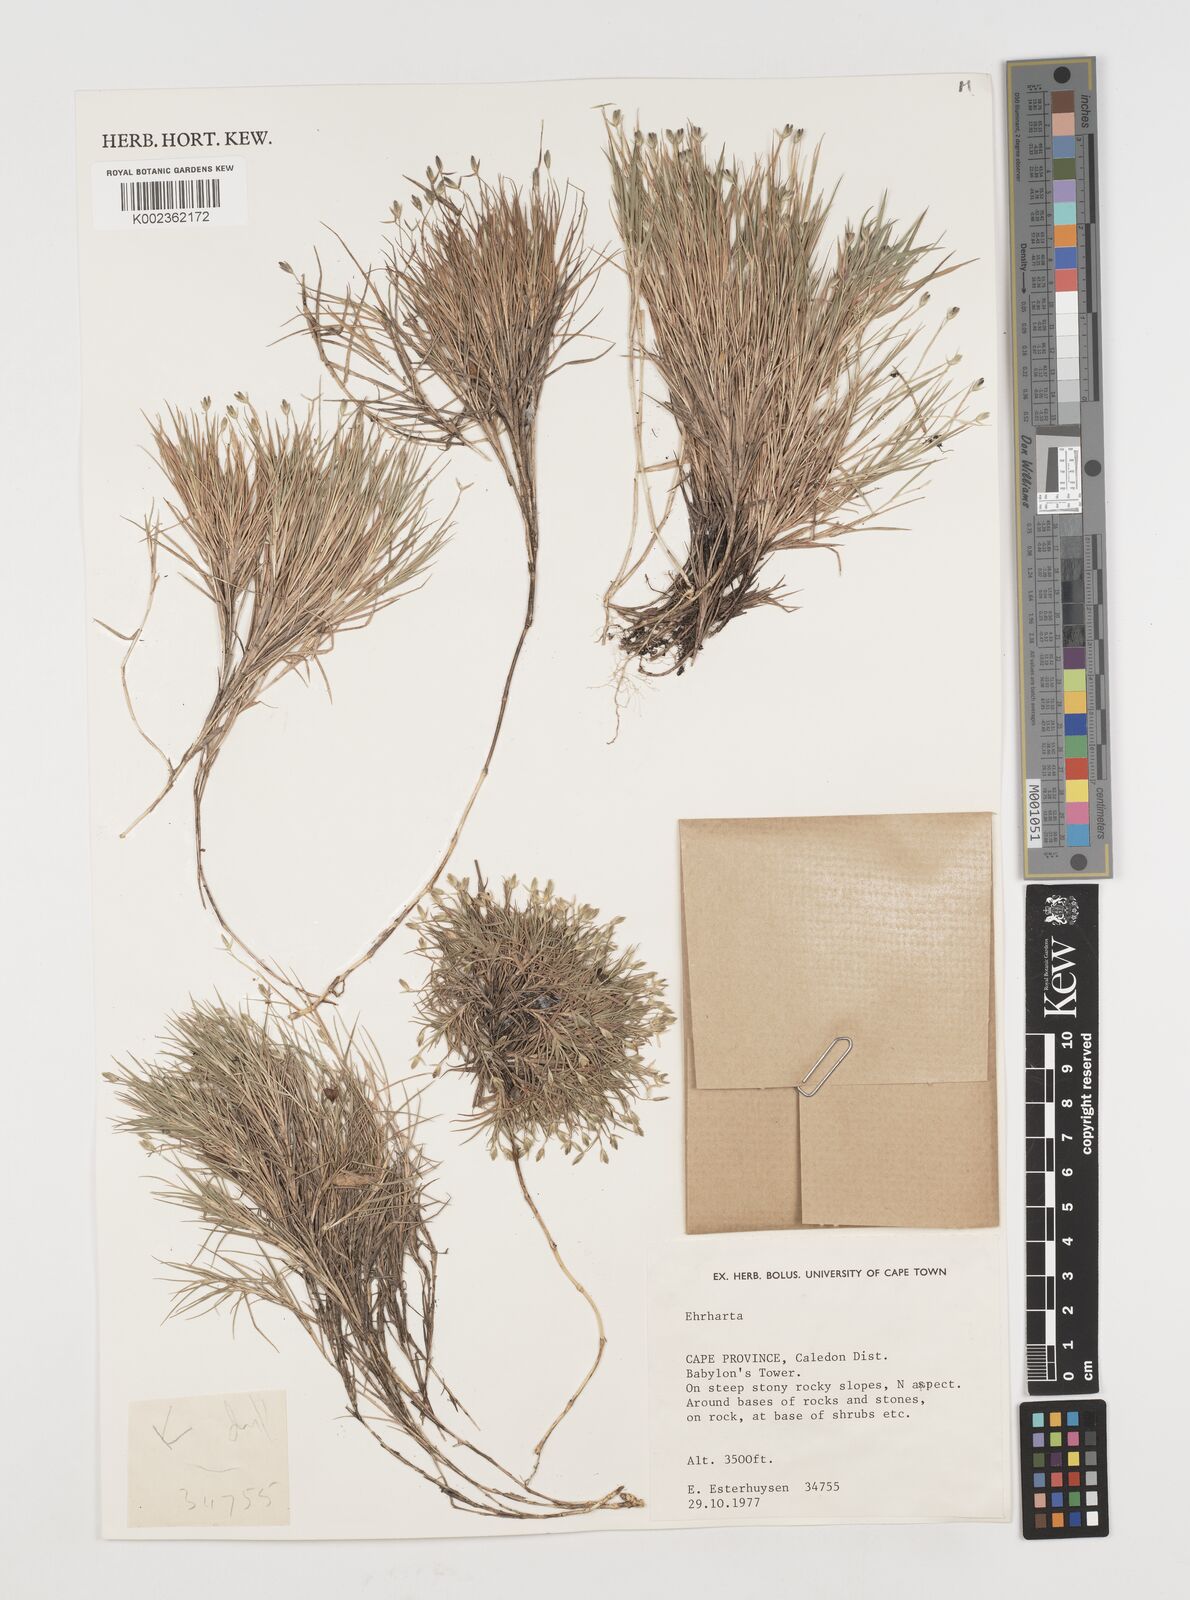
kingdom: Plantae
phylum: Tracheophyta
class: Liliopsida
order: Poales
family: Poaceae
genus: Ehrharta
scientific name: Ehrharta
